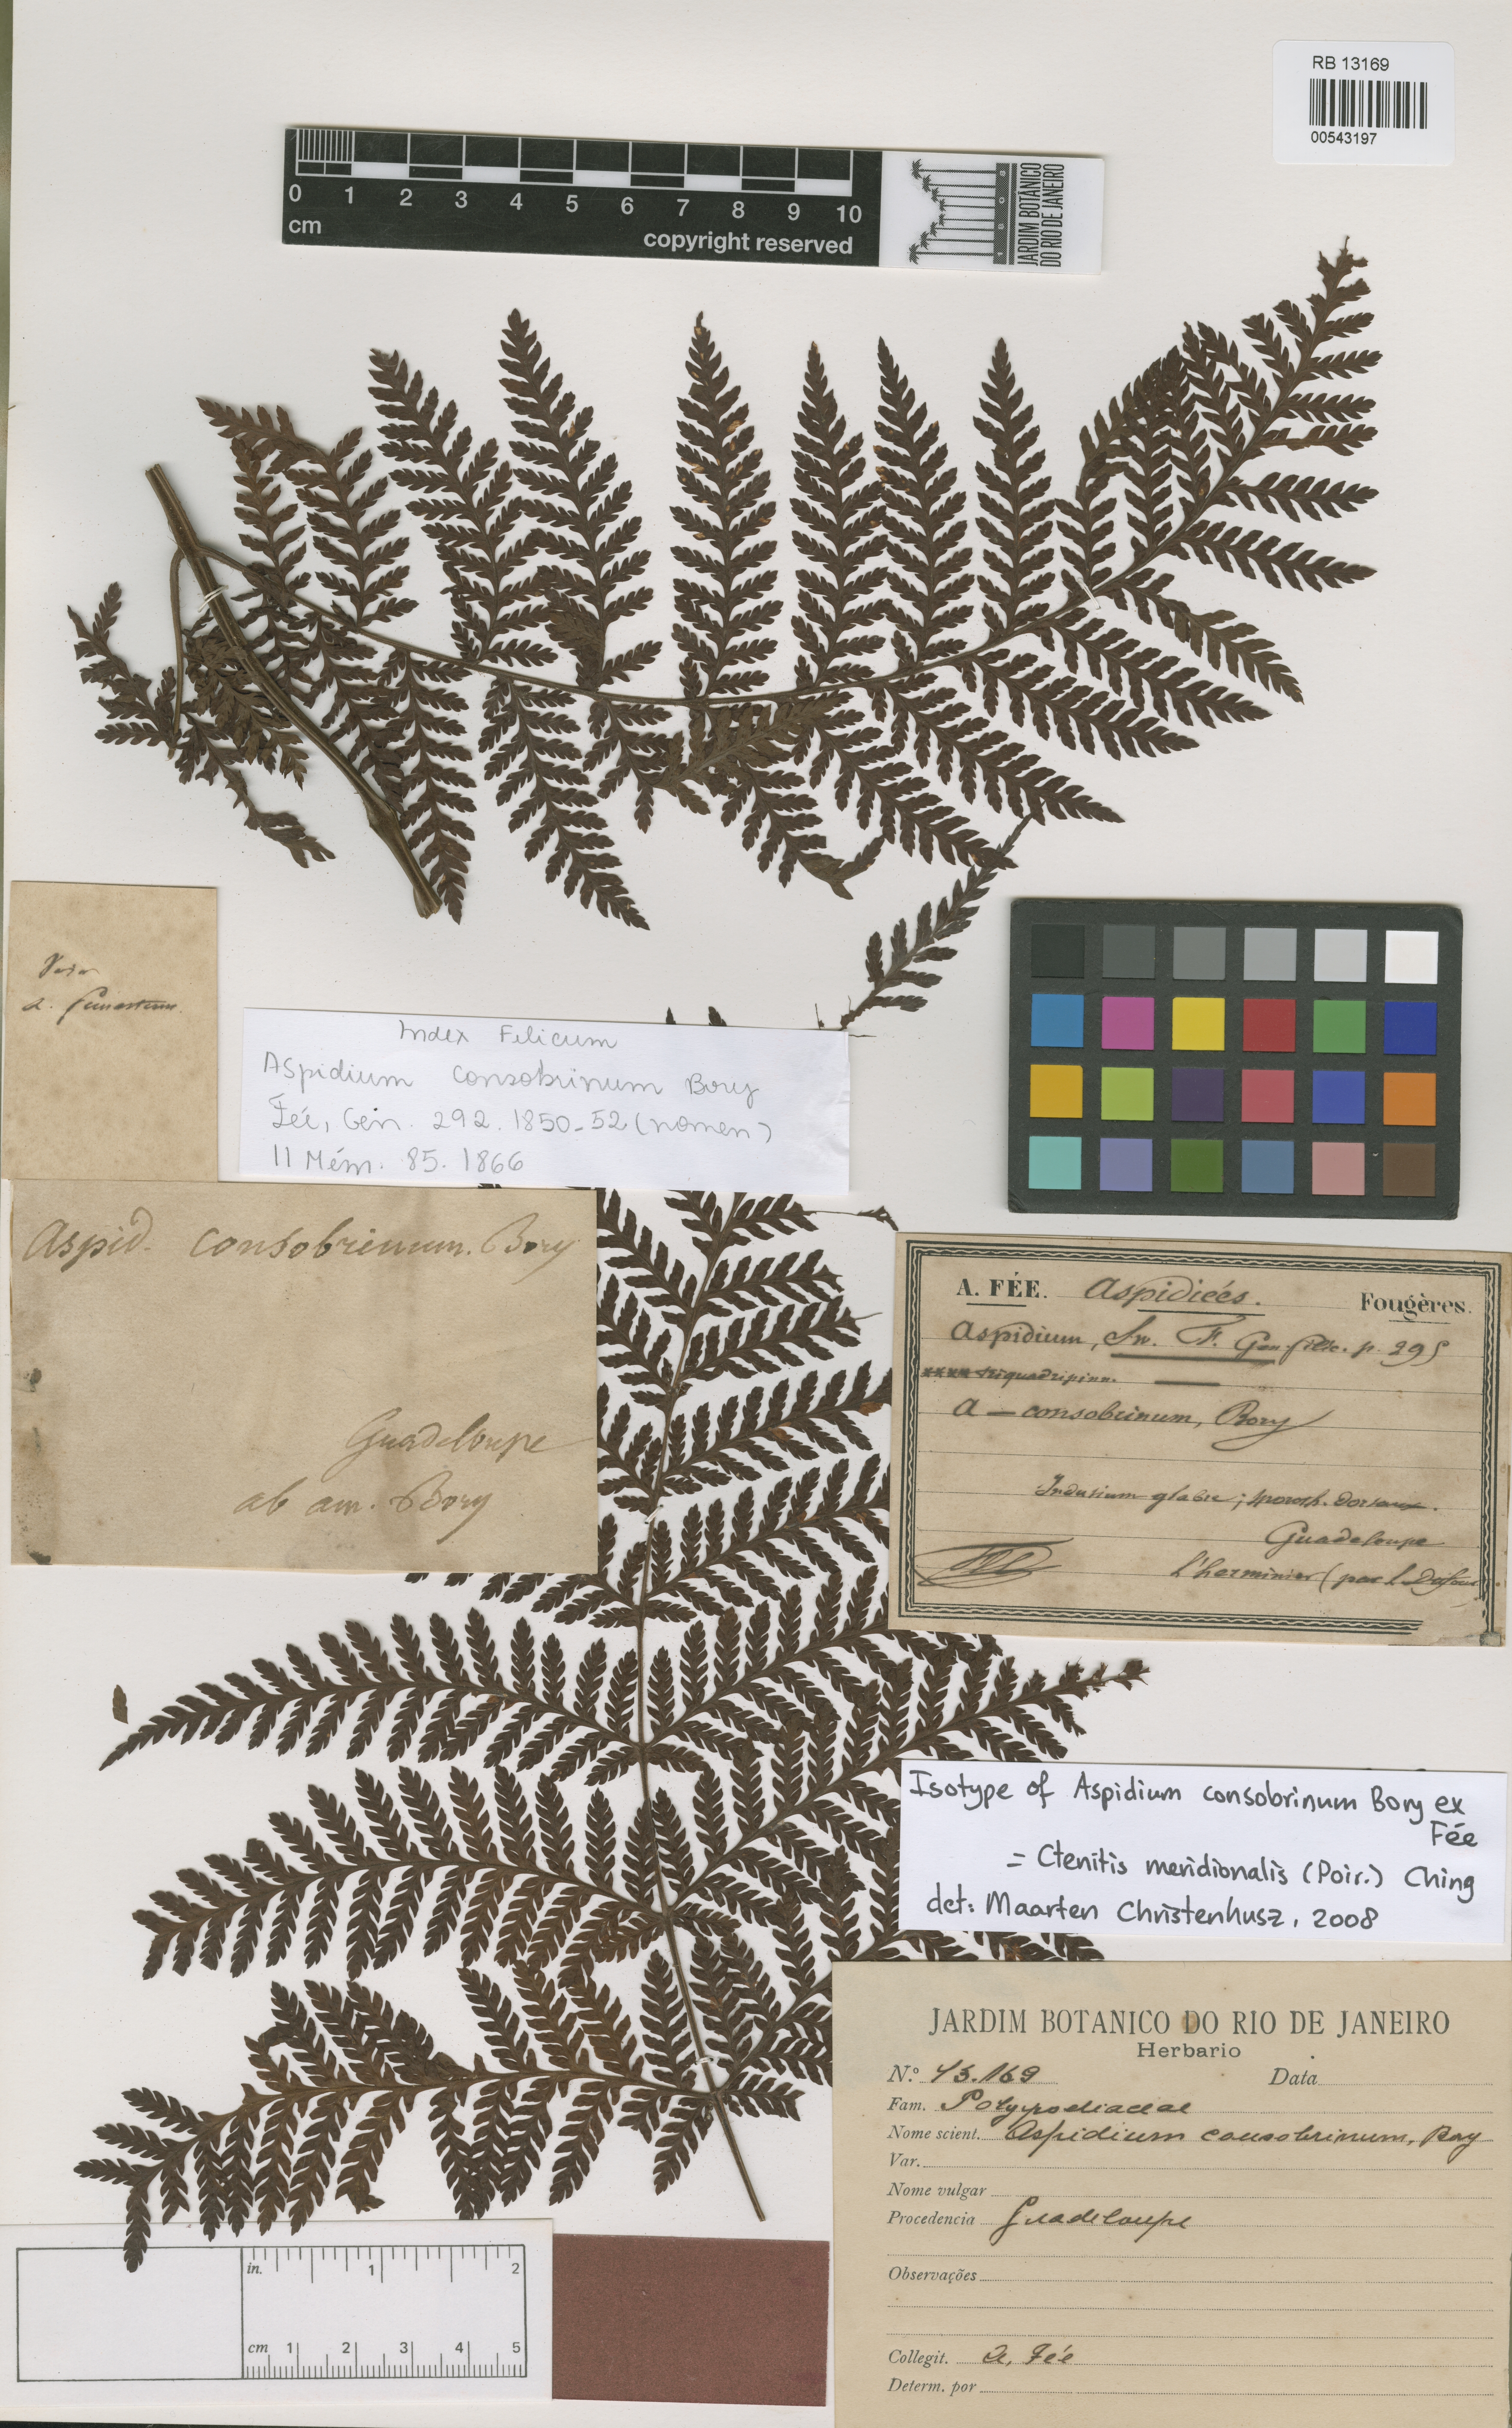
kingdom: Plantae
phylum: Tracheophyta
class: Polypodiopsida
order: Polypodiales
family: Dryopteridaceae
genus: Megalastrum
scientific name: Megalastrum crenulans
